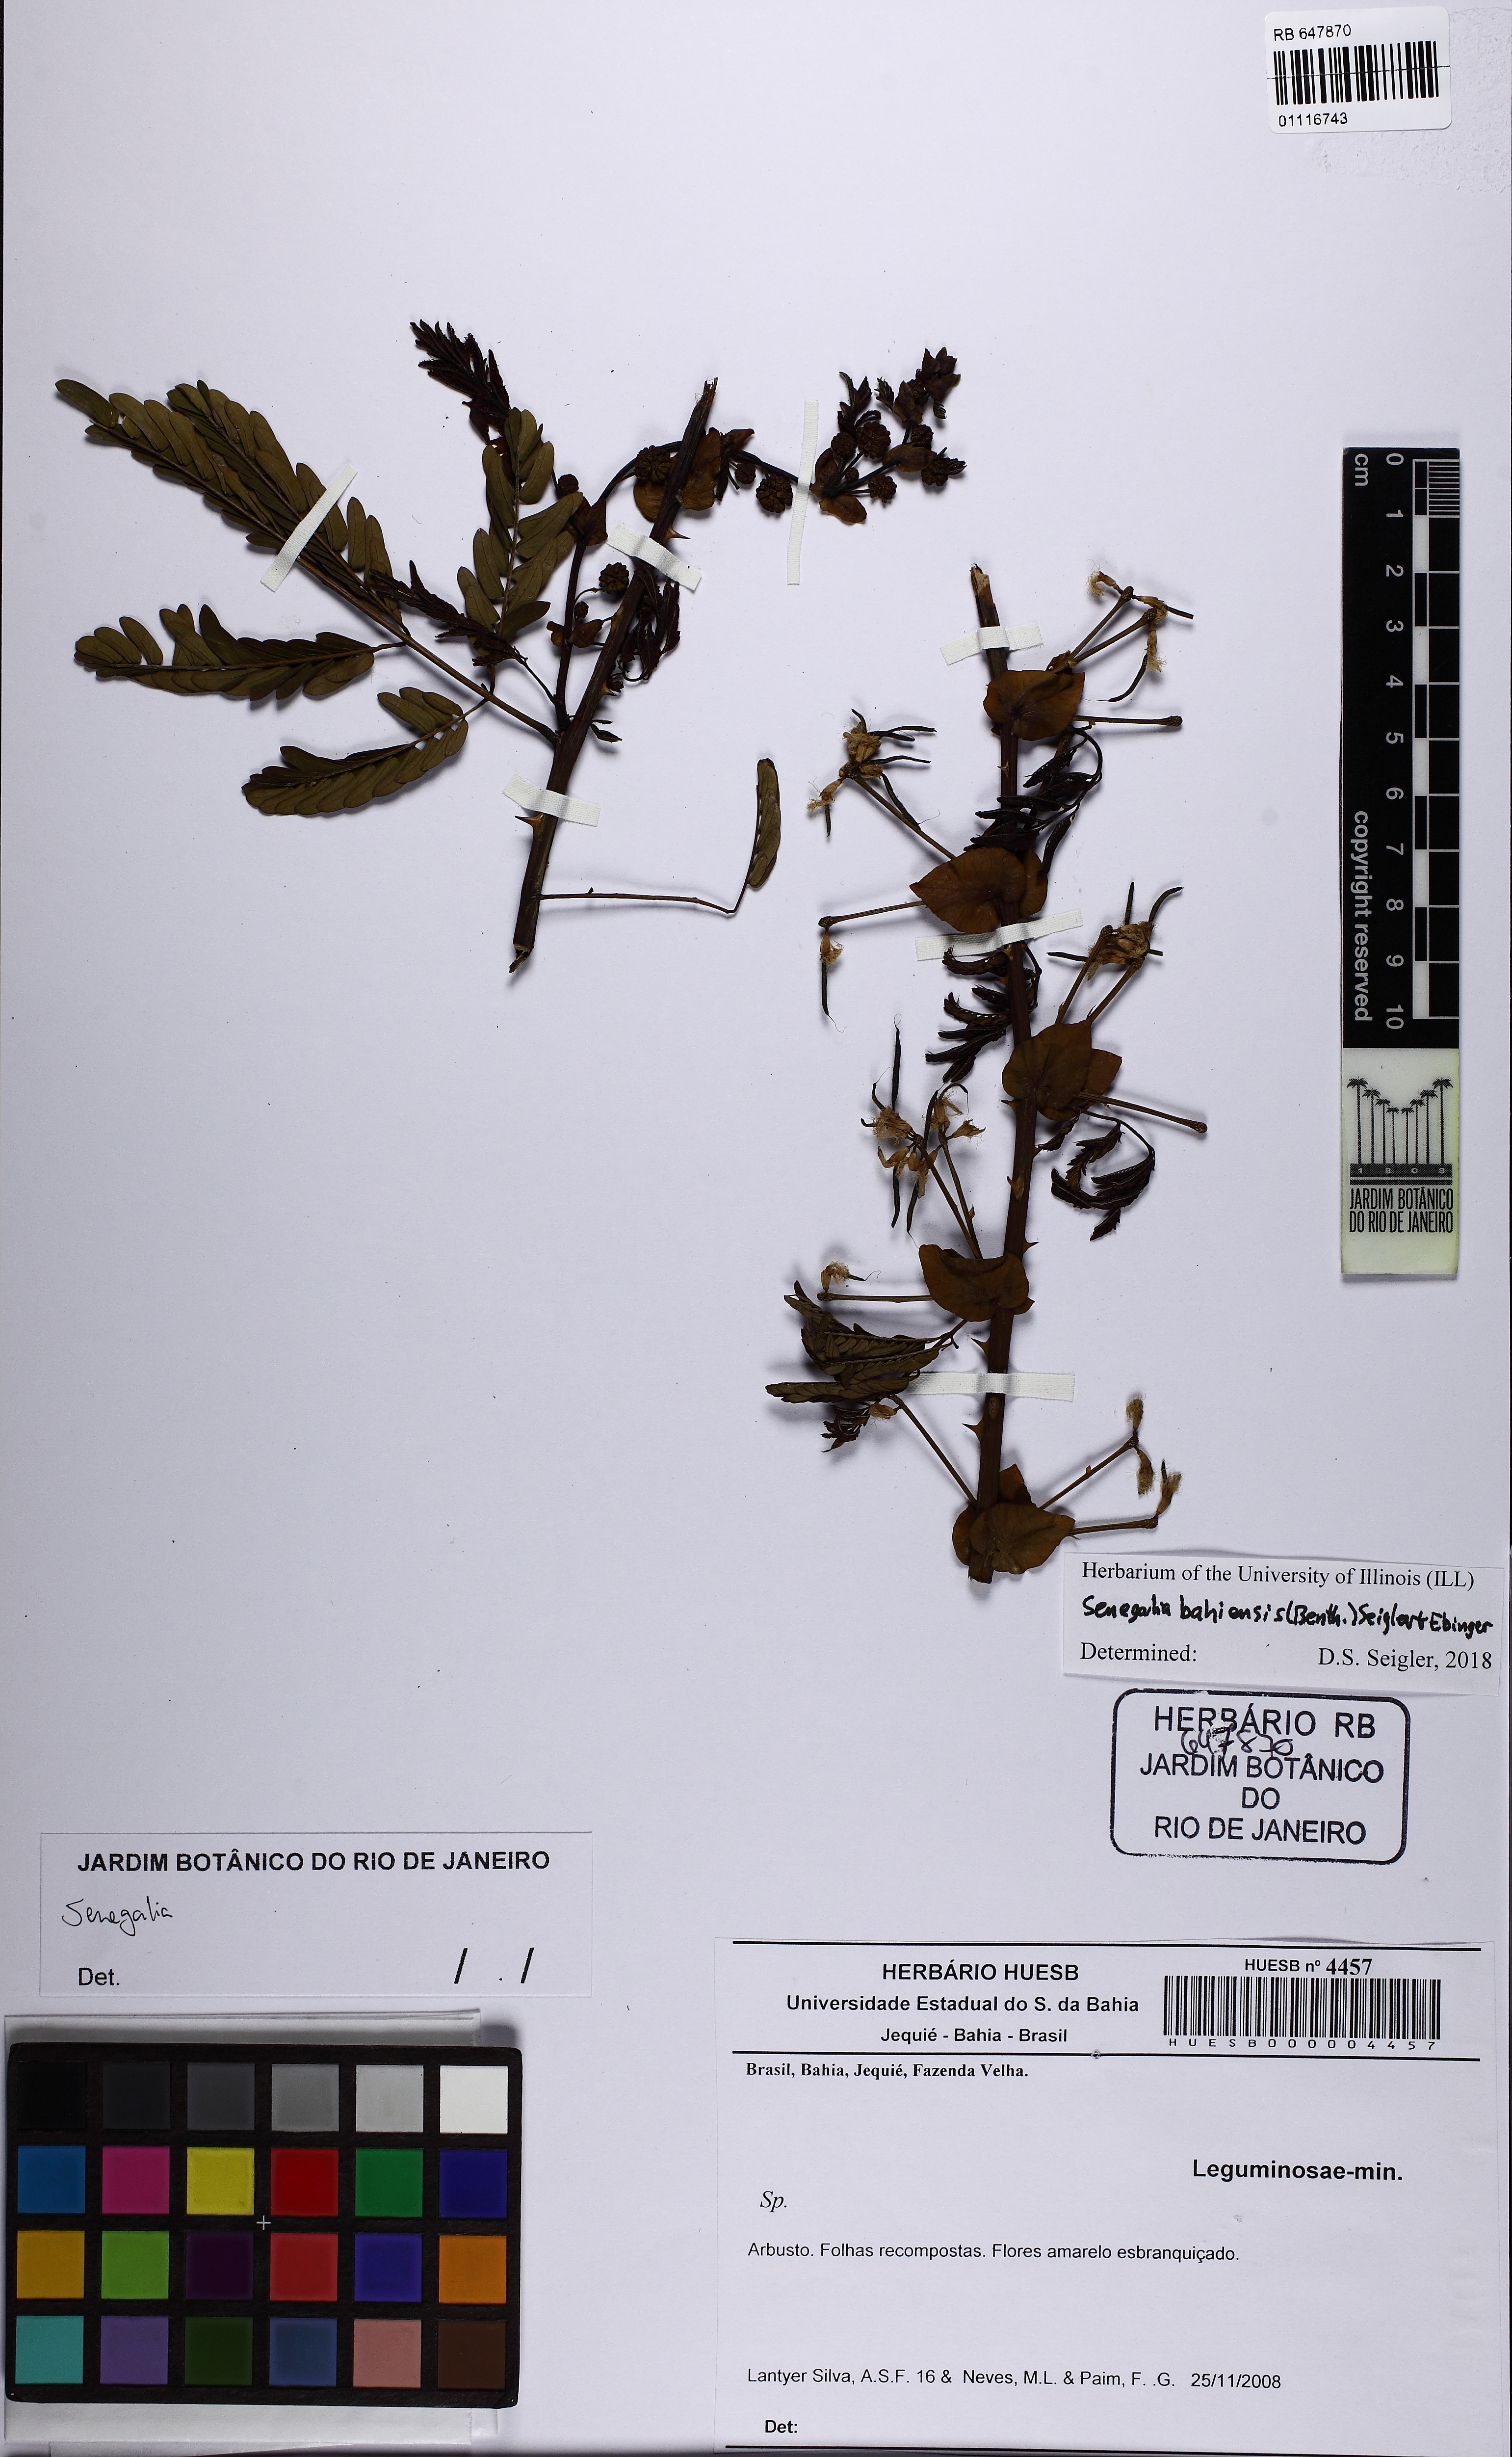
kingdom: Plantae
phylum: Tracheophyta
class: Magnoliopsida
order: Fabales
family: Fabaceae
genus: Senegalia
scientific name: Senegalia bahiensis
